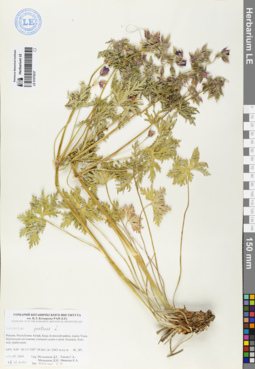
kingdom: Plantae
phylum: Tracheophyta
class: Magnoliopsida
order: Geraniales
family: Geraniaceae
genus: Geranium
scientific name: Geranium pratense
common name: Meadow crane's-bill
